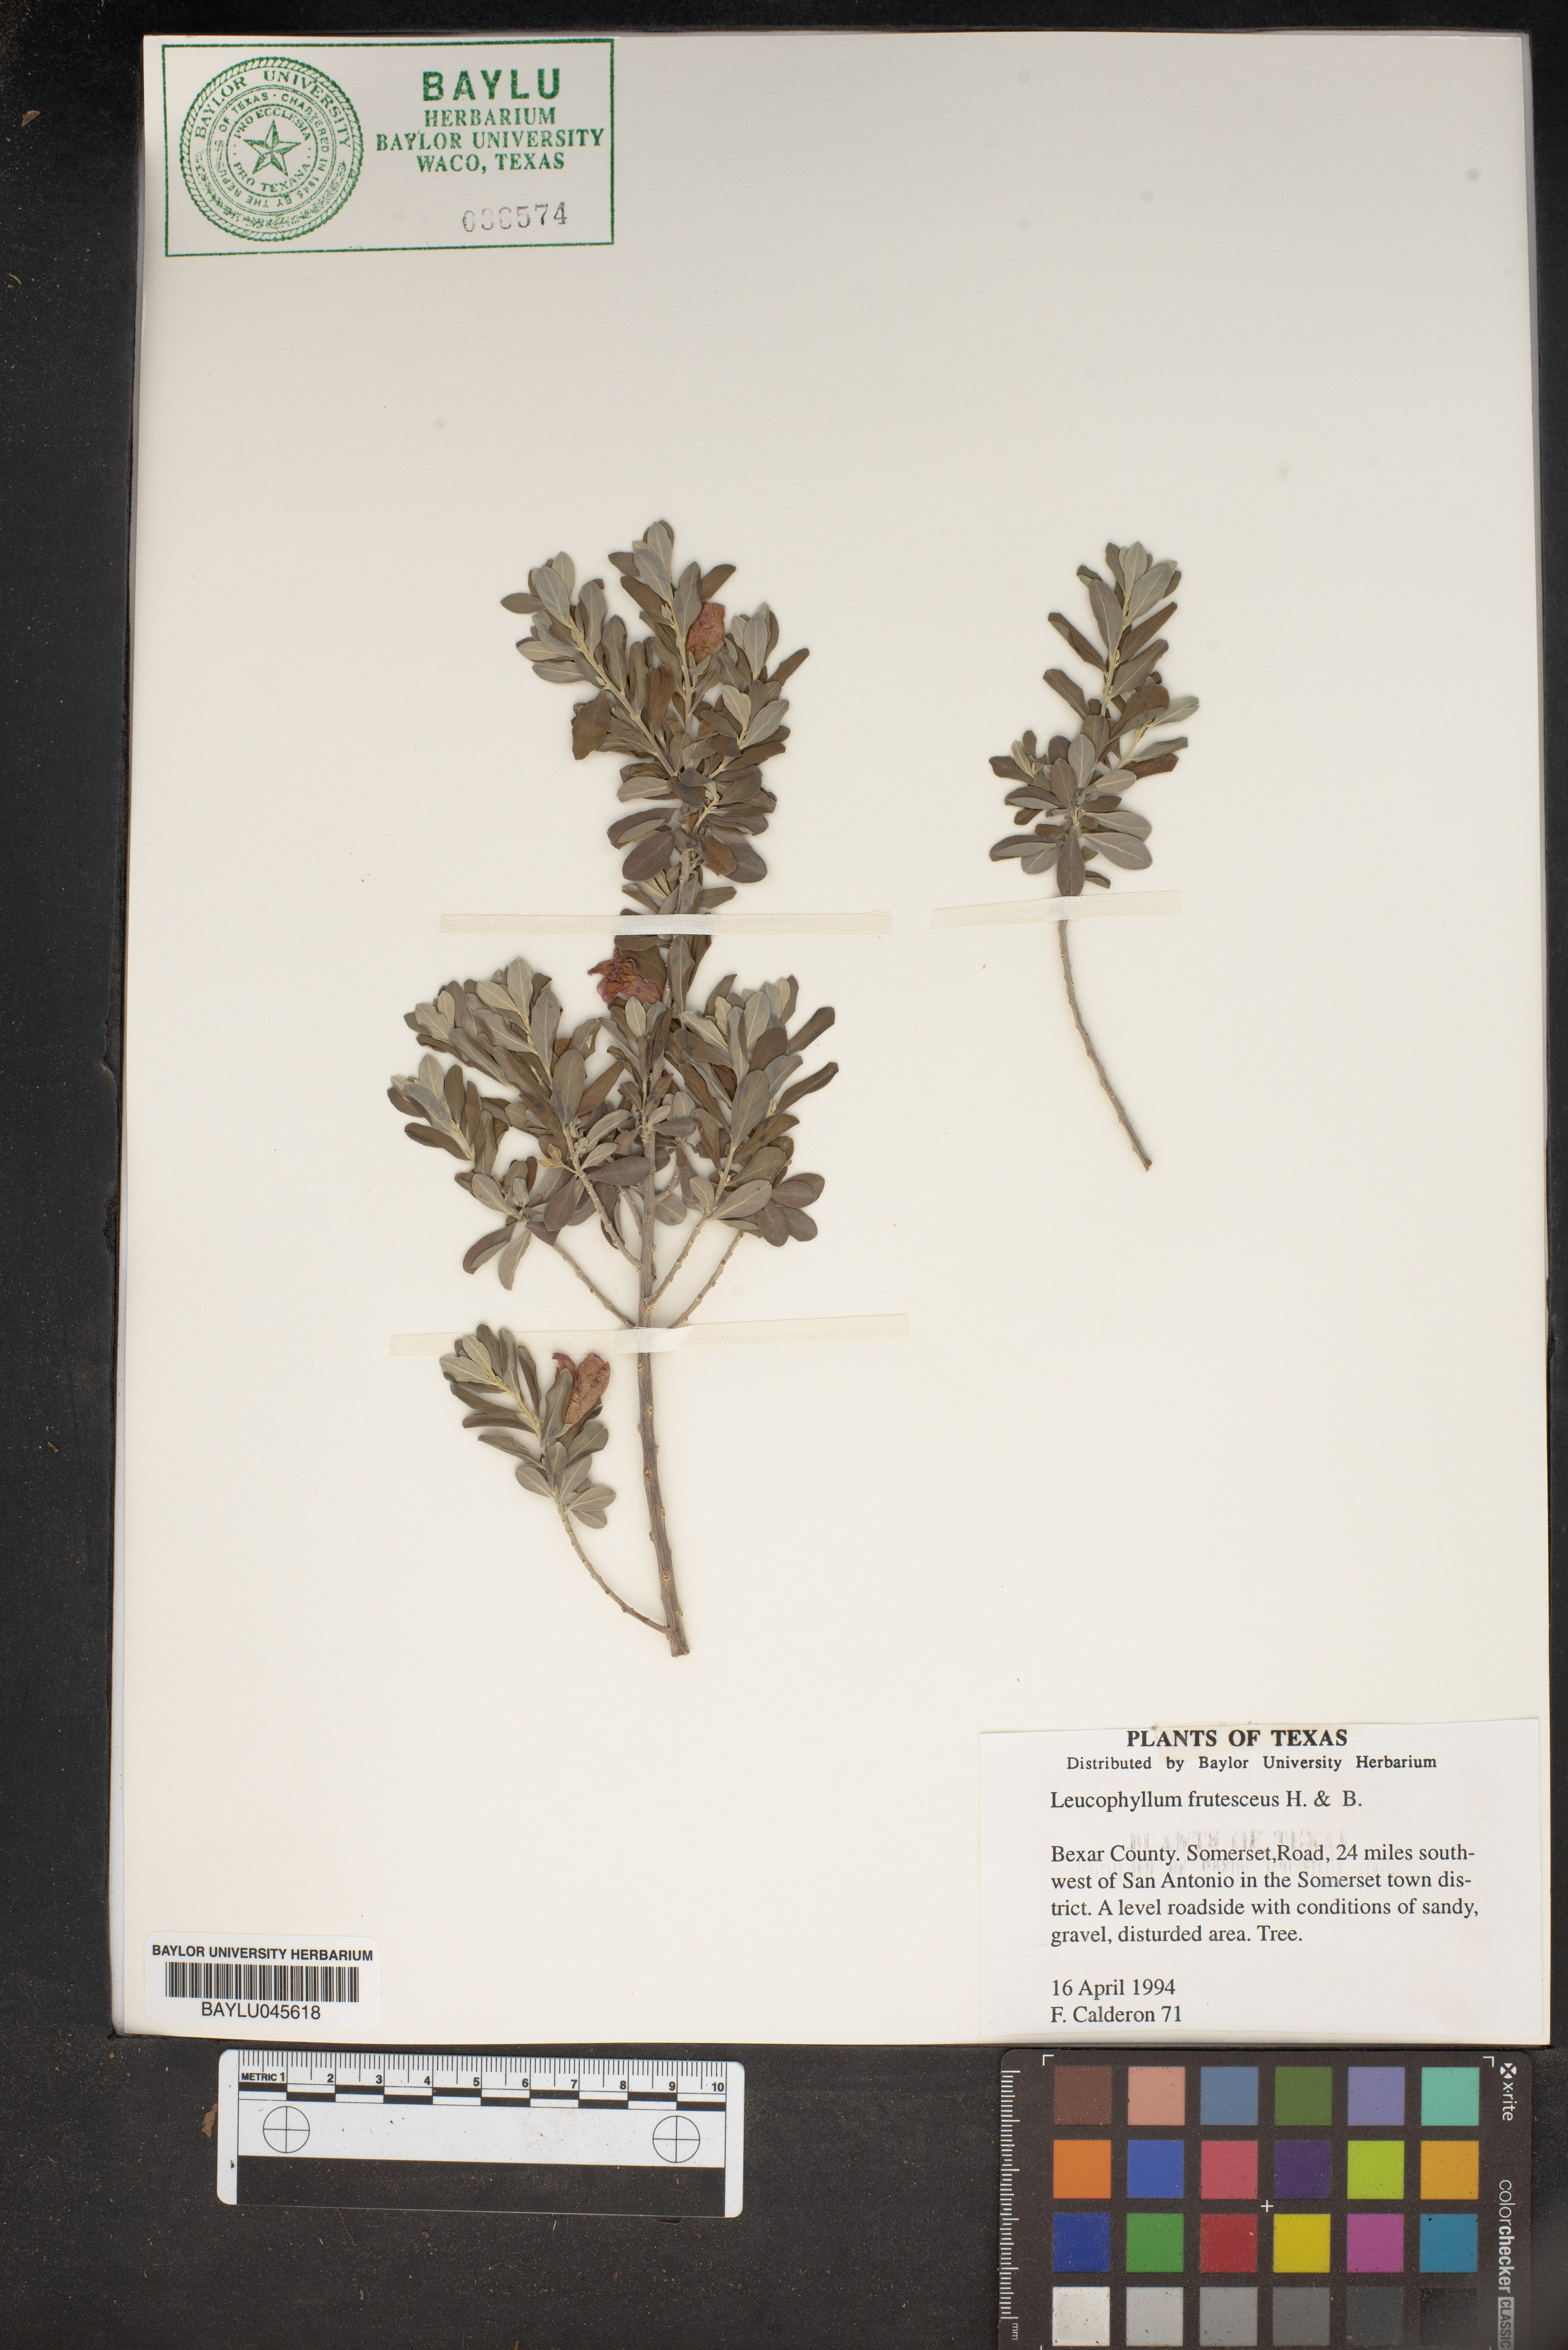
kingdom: Plantae
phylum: Tracheophyta
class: Magnoliopsida
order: Lamiales
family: Scrophulariaceae
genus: Leucophyllum
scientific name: Leucophyllum frutescens
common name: Texas silverleaf
